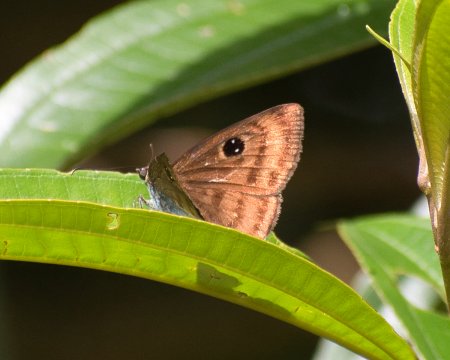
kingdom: Animalia
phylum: Arthropoda
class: Insecta
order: Lepidoptera
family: Hesperiidae
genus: Cyclosemia
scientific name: Cyclosemia lyrcaea
